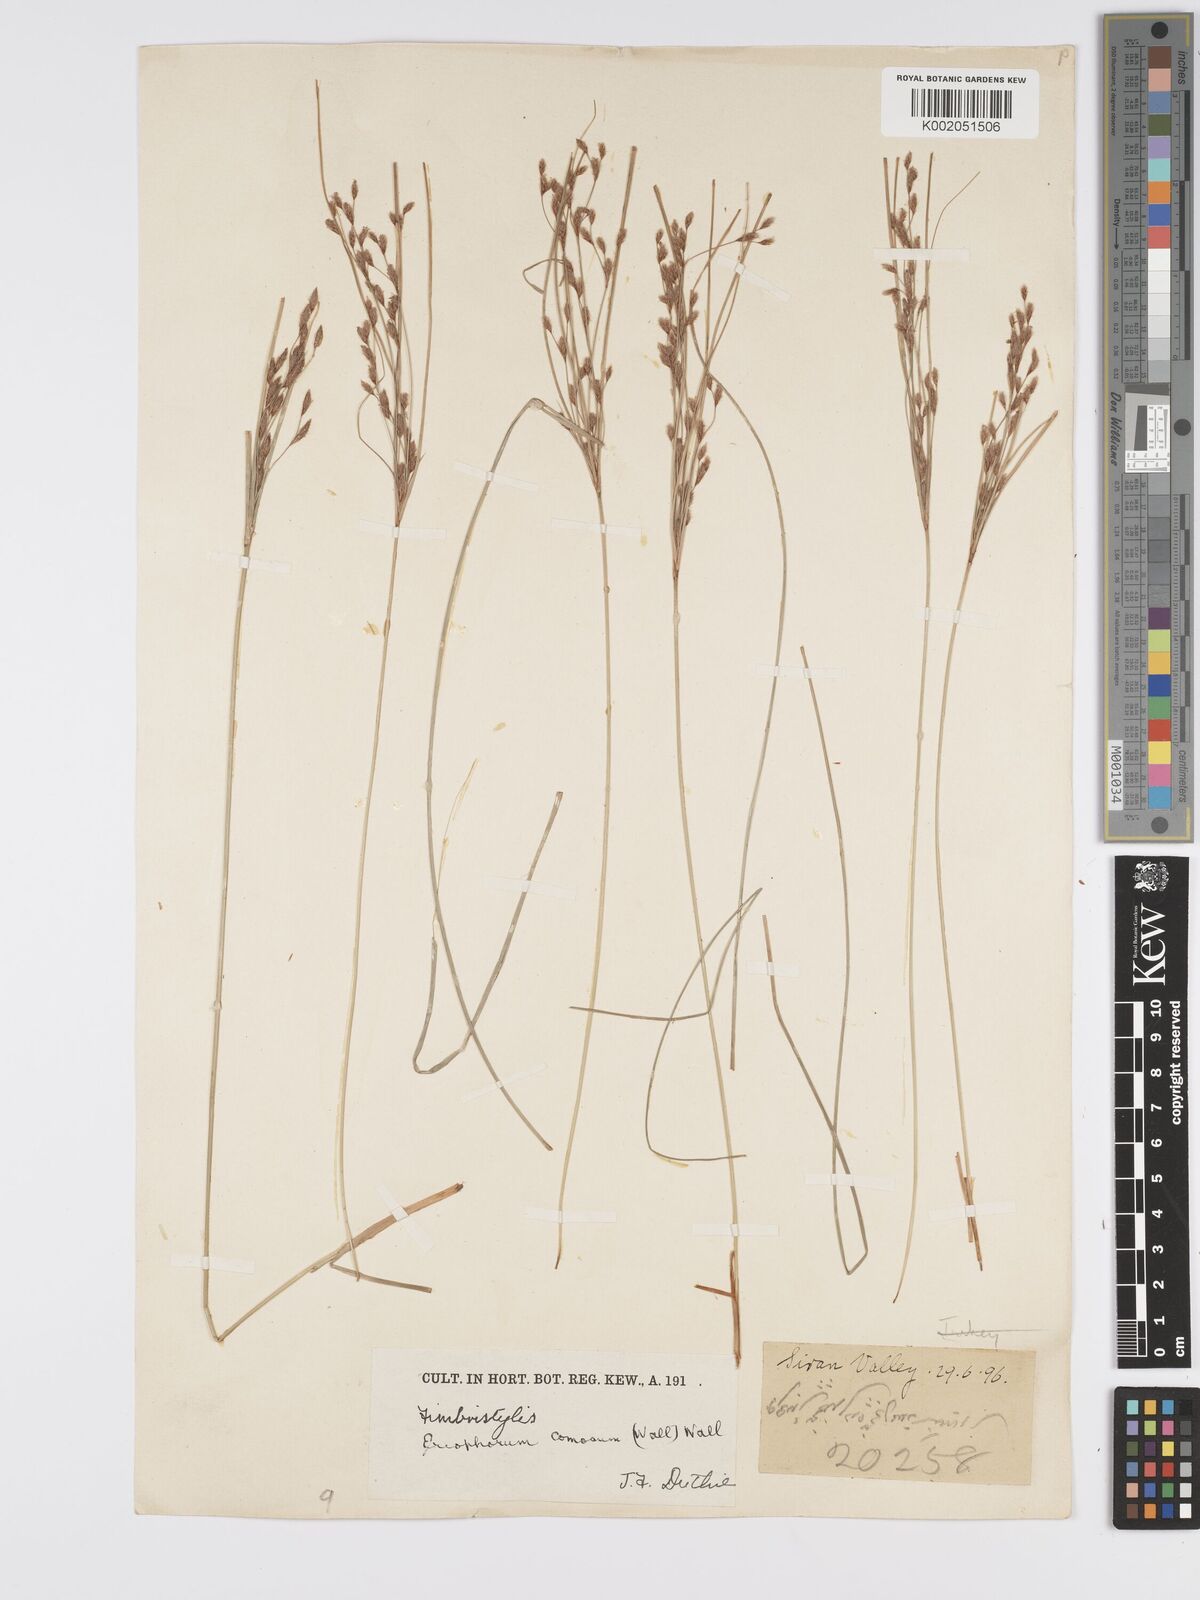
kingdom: Plantae
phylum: Tracheophyta
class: Liliopsida
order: Poales
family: Cyperaceae
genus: Erioscirpus
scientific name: Erioscirpus comosus
